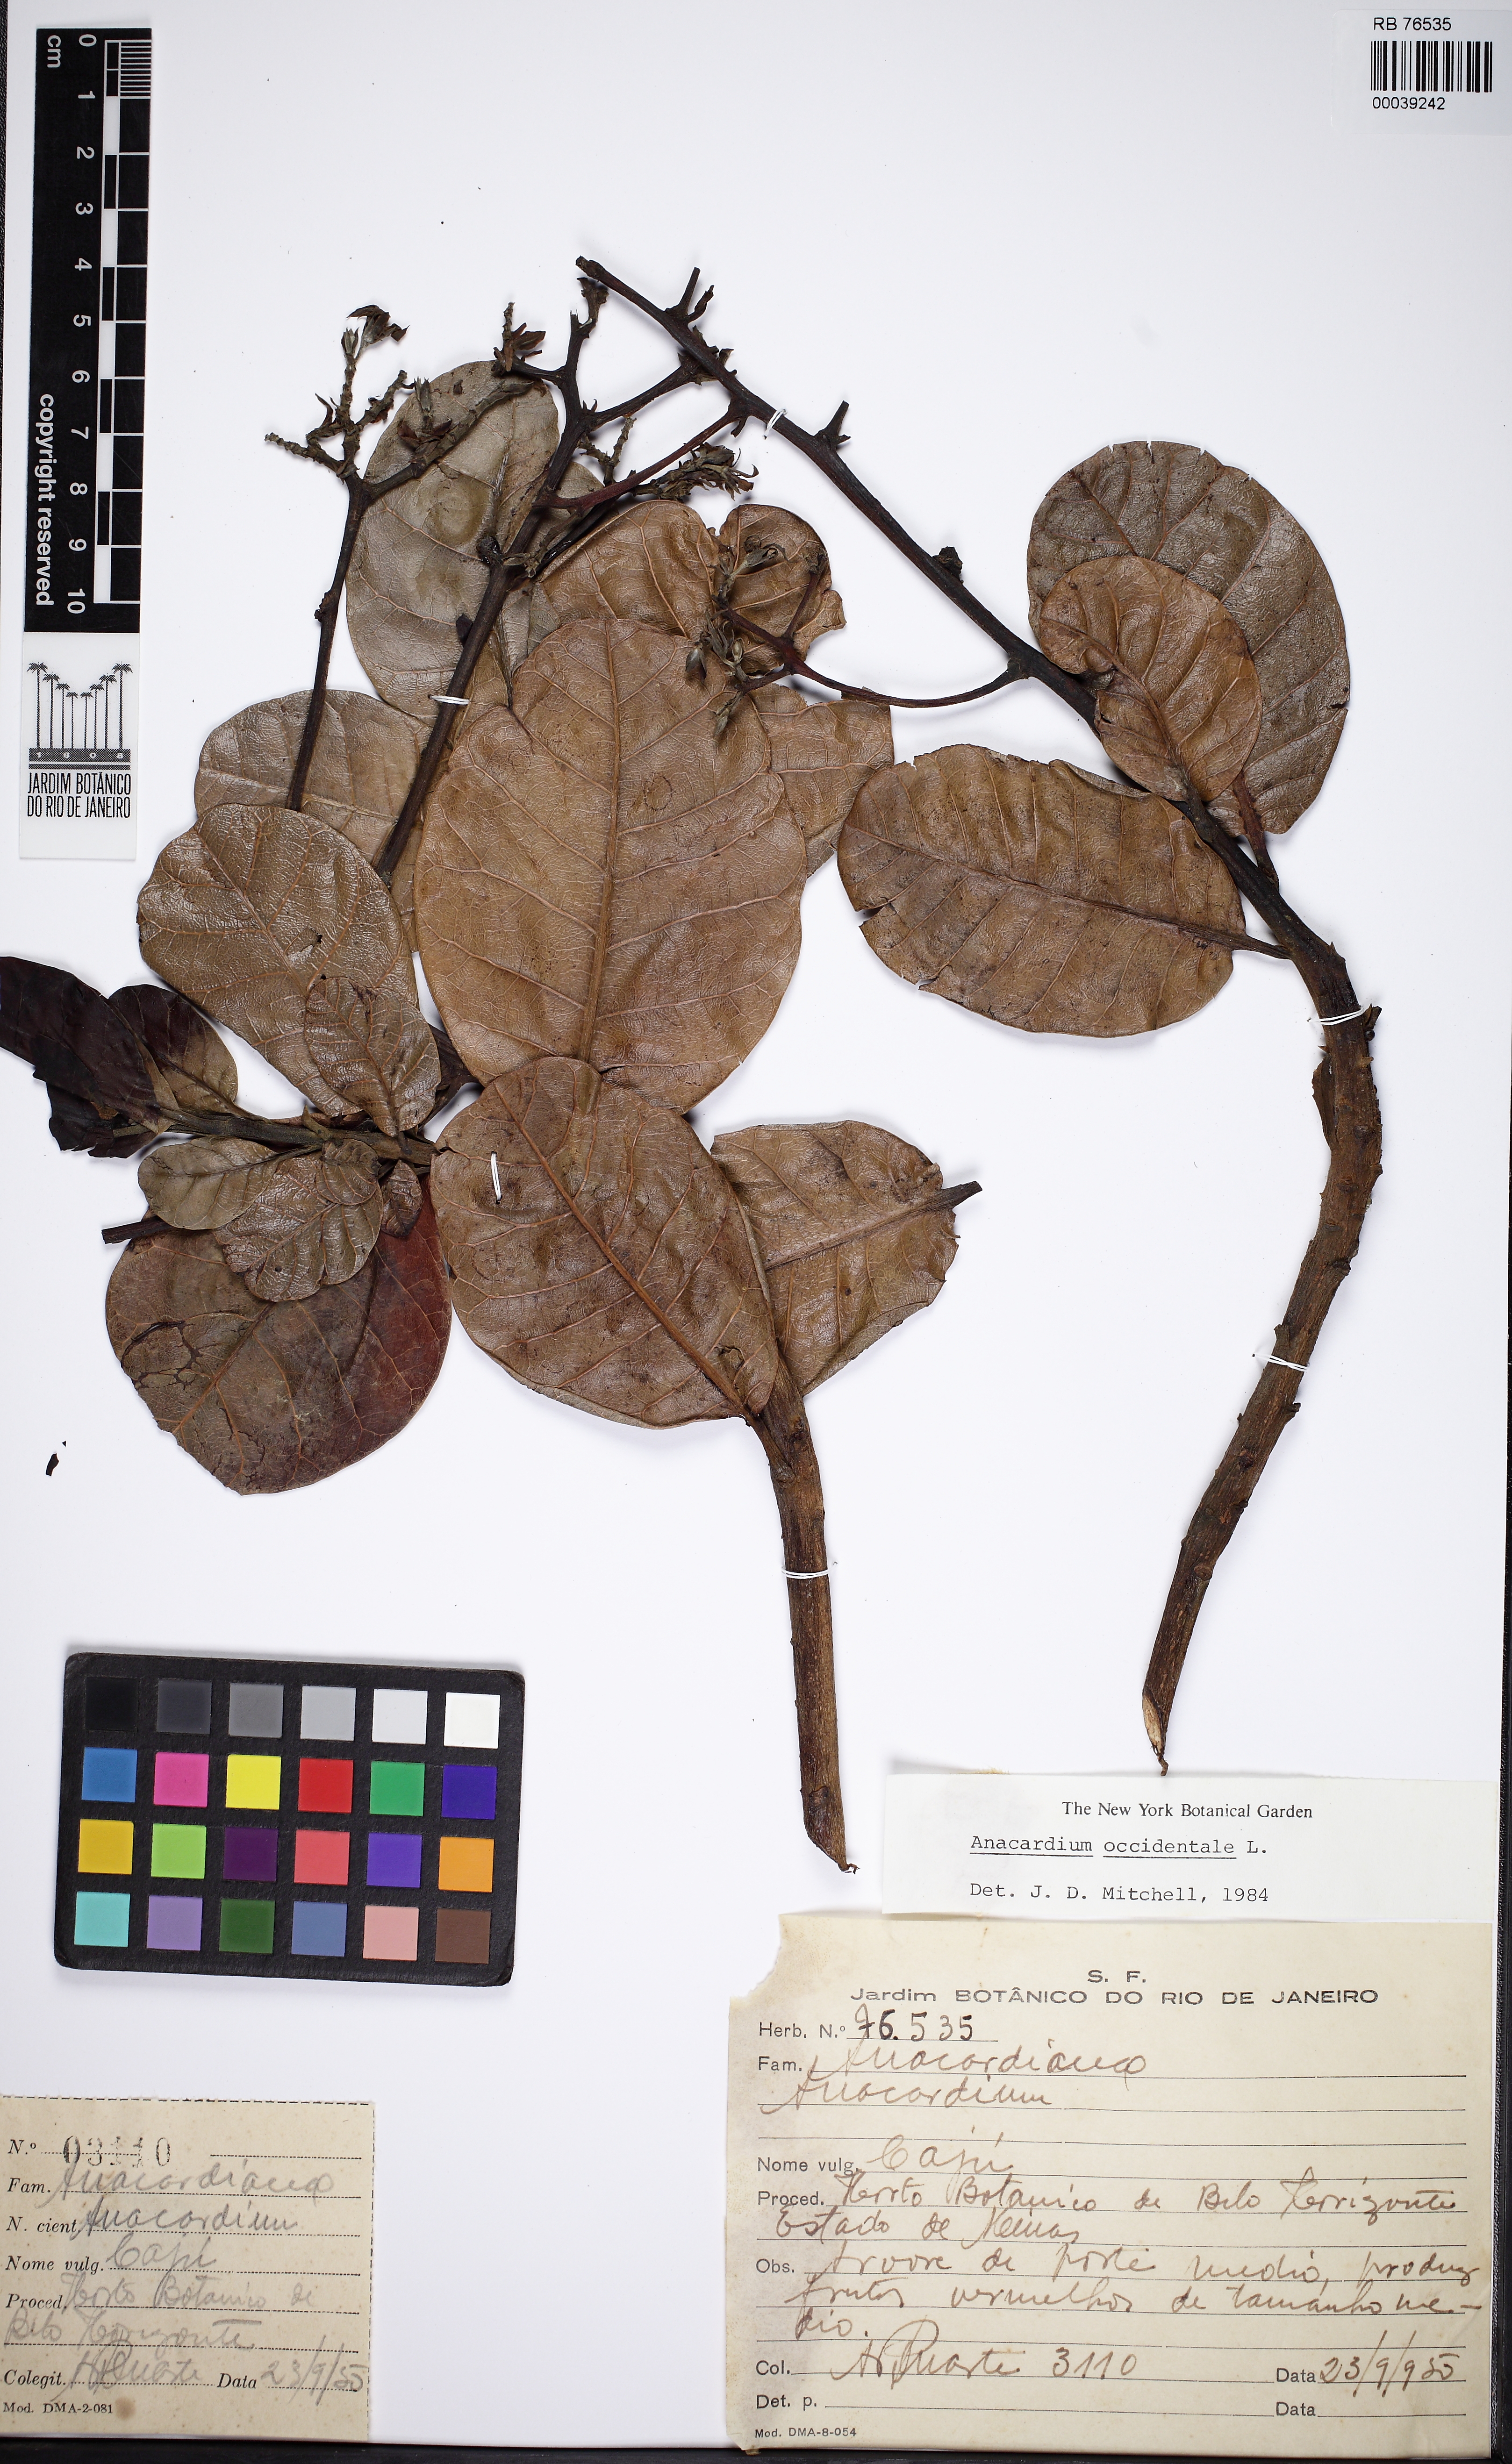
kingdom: Plantae
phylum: Tracheophyta
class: Magnoliopsida
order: Sapindales
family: Anacardiaceae
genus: Anacardium
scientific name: Anacardium
